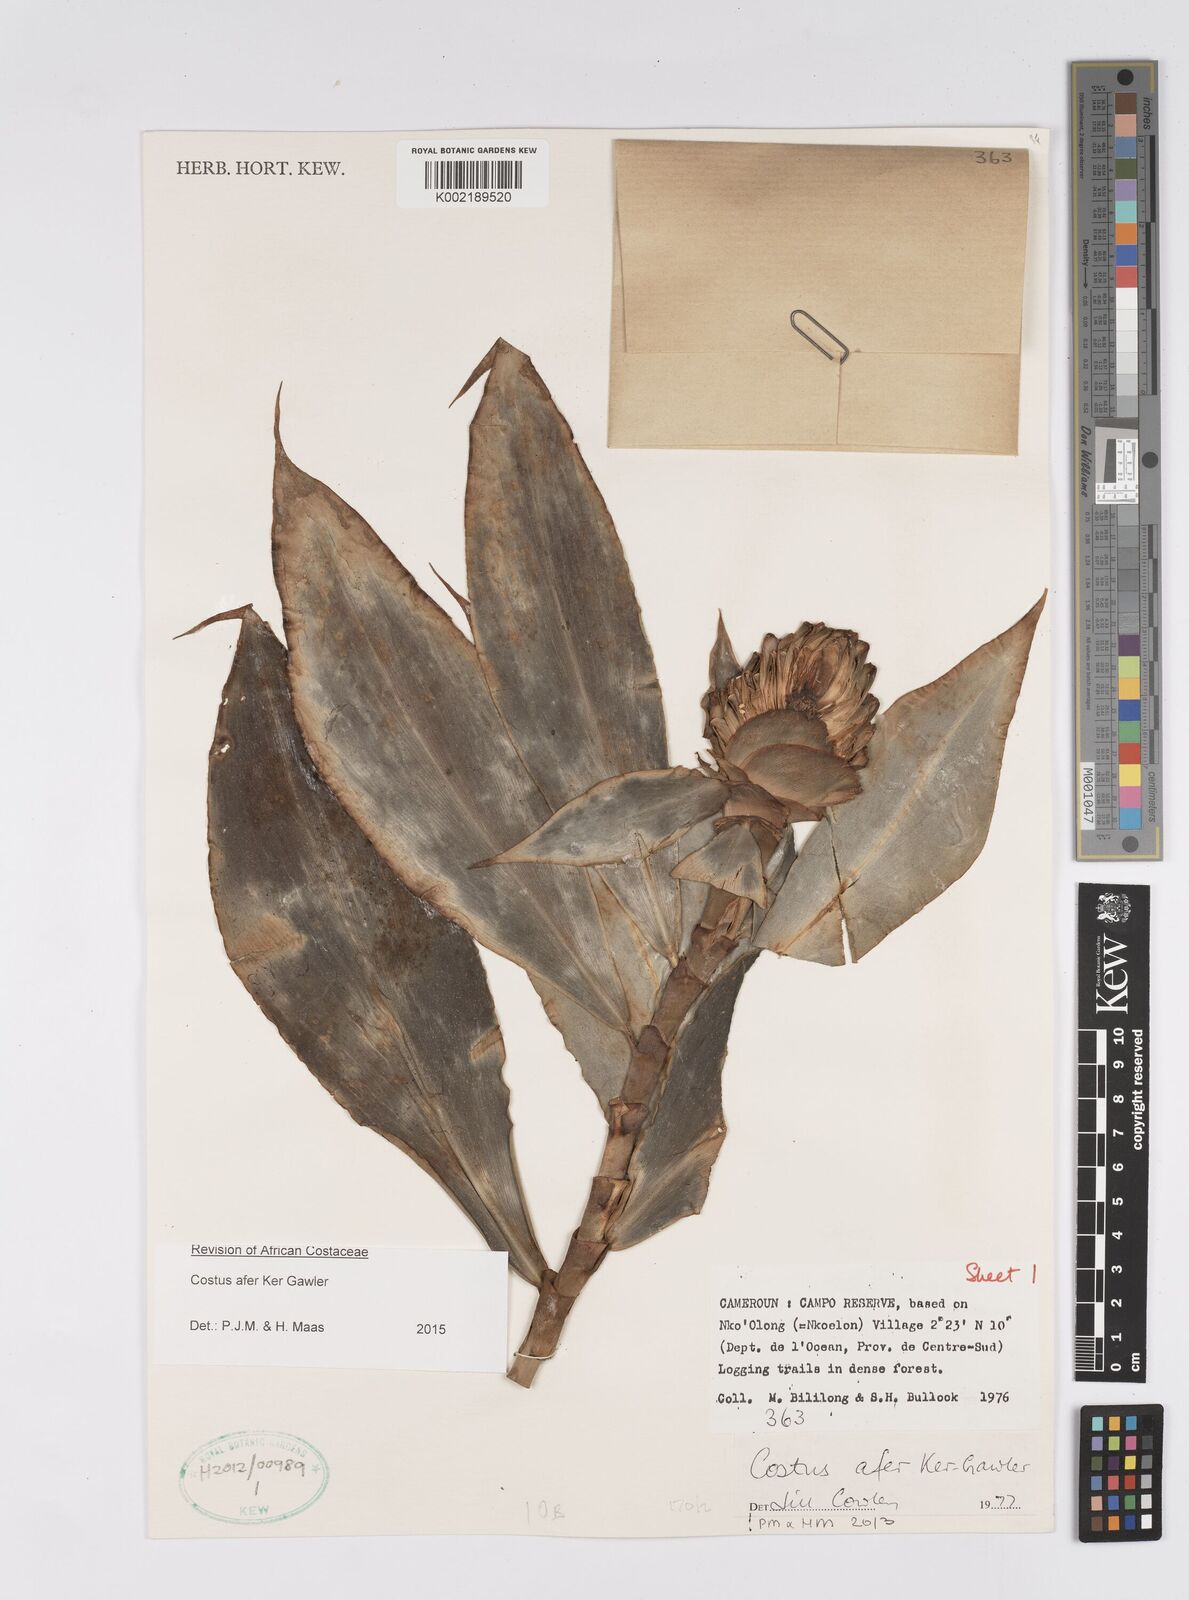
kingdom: Plantae
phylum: Tracheophyta
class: Liliopsida
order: Zingiberales
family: Costaceae
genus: Costus
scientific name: Costus afer
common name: Spiral-ginger
